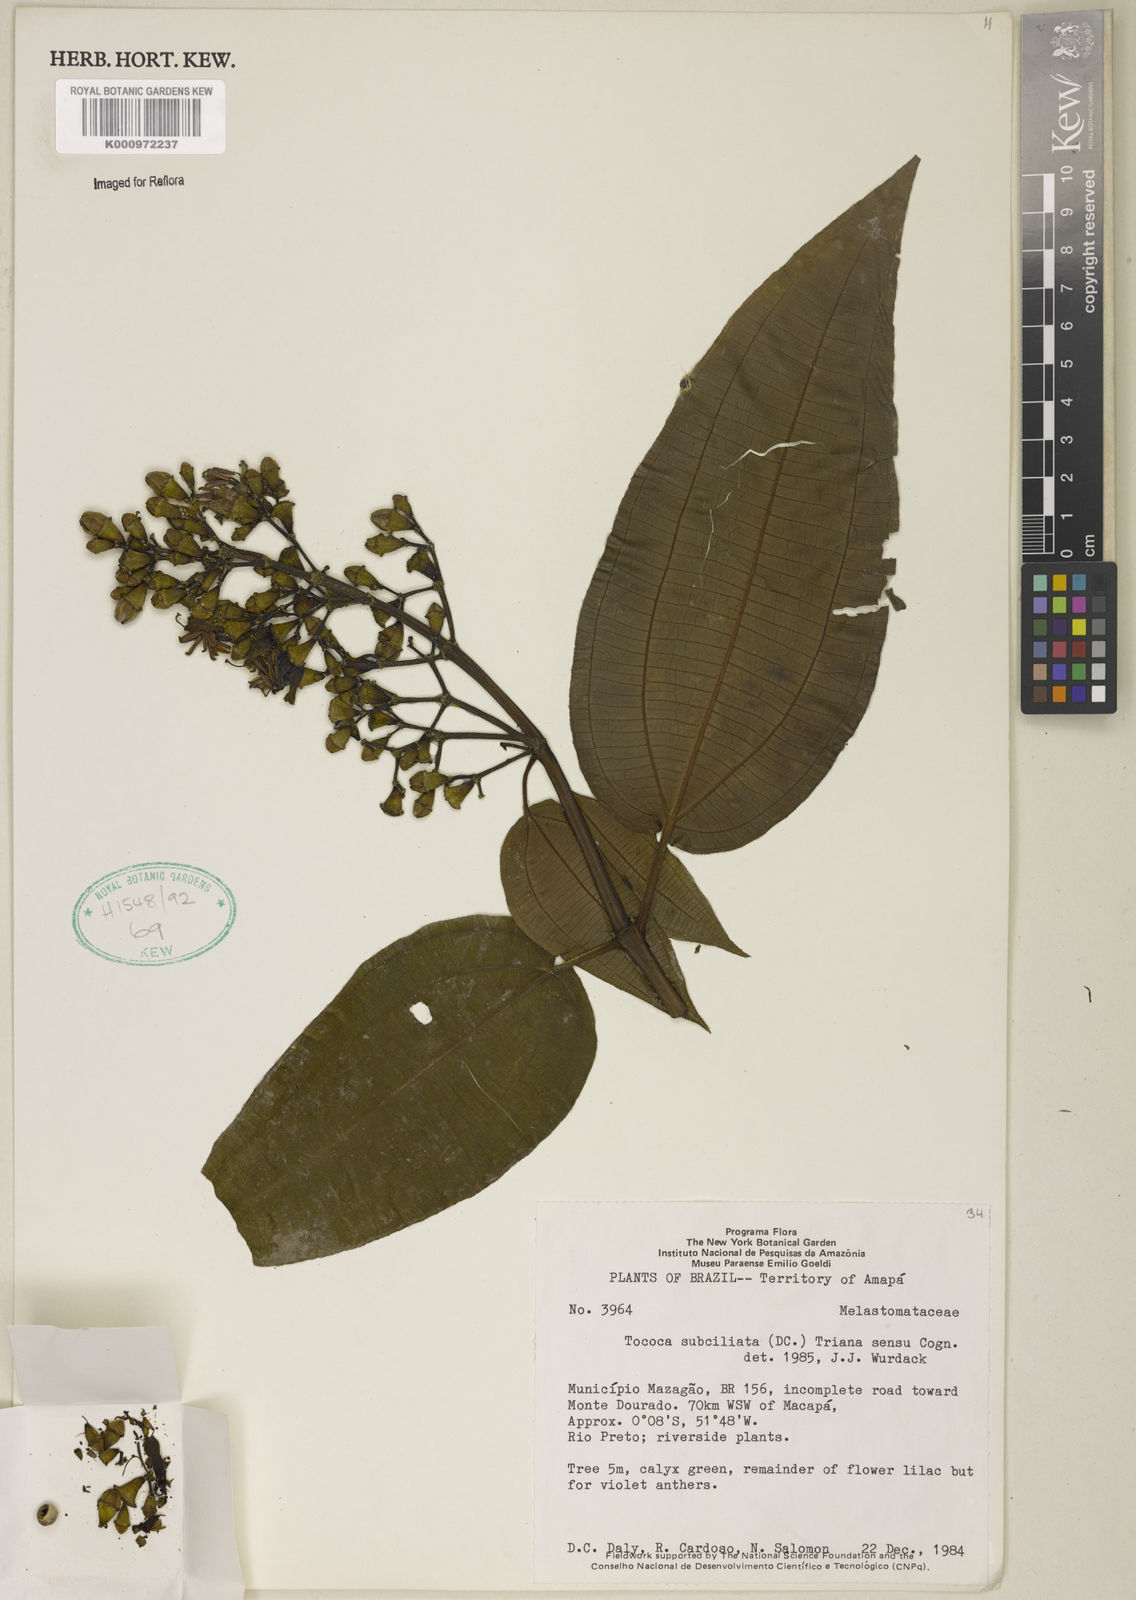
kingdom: Plantae
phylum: Tracheophyta
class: Magnoliopsida
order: Myrtales
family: Melastomataceae
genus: Miconia
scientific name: Miconia subciliata
